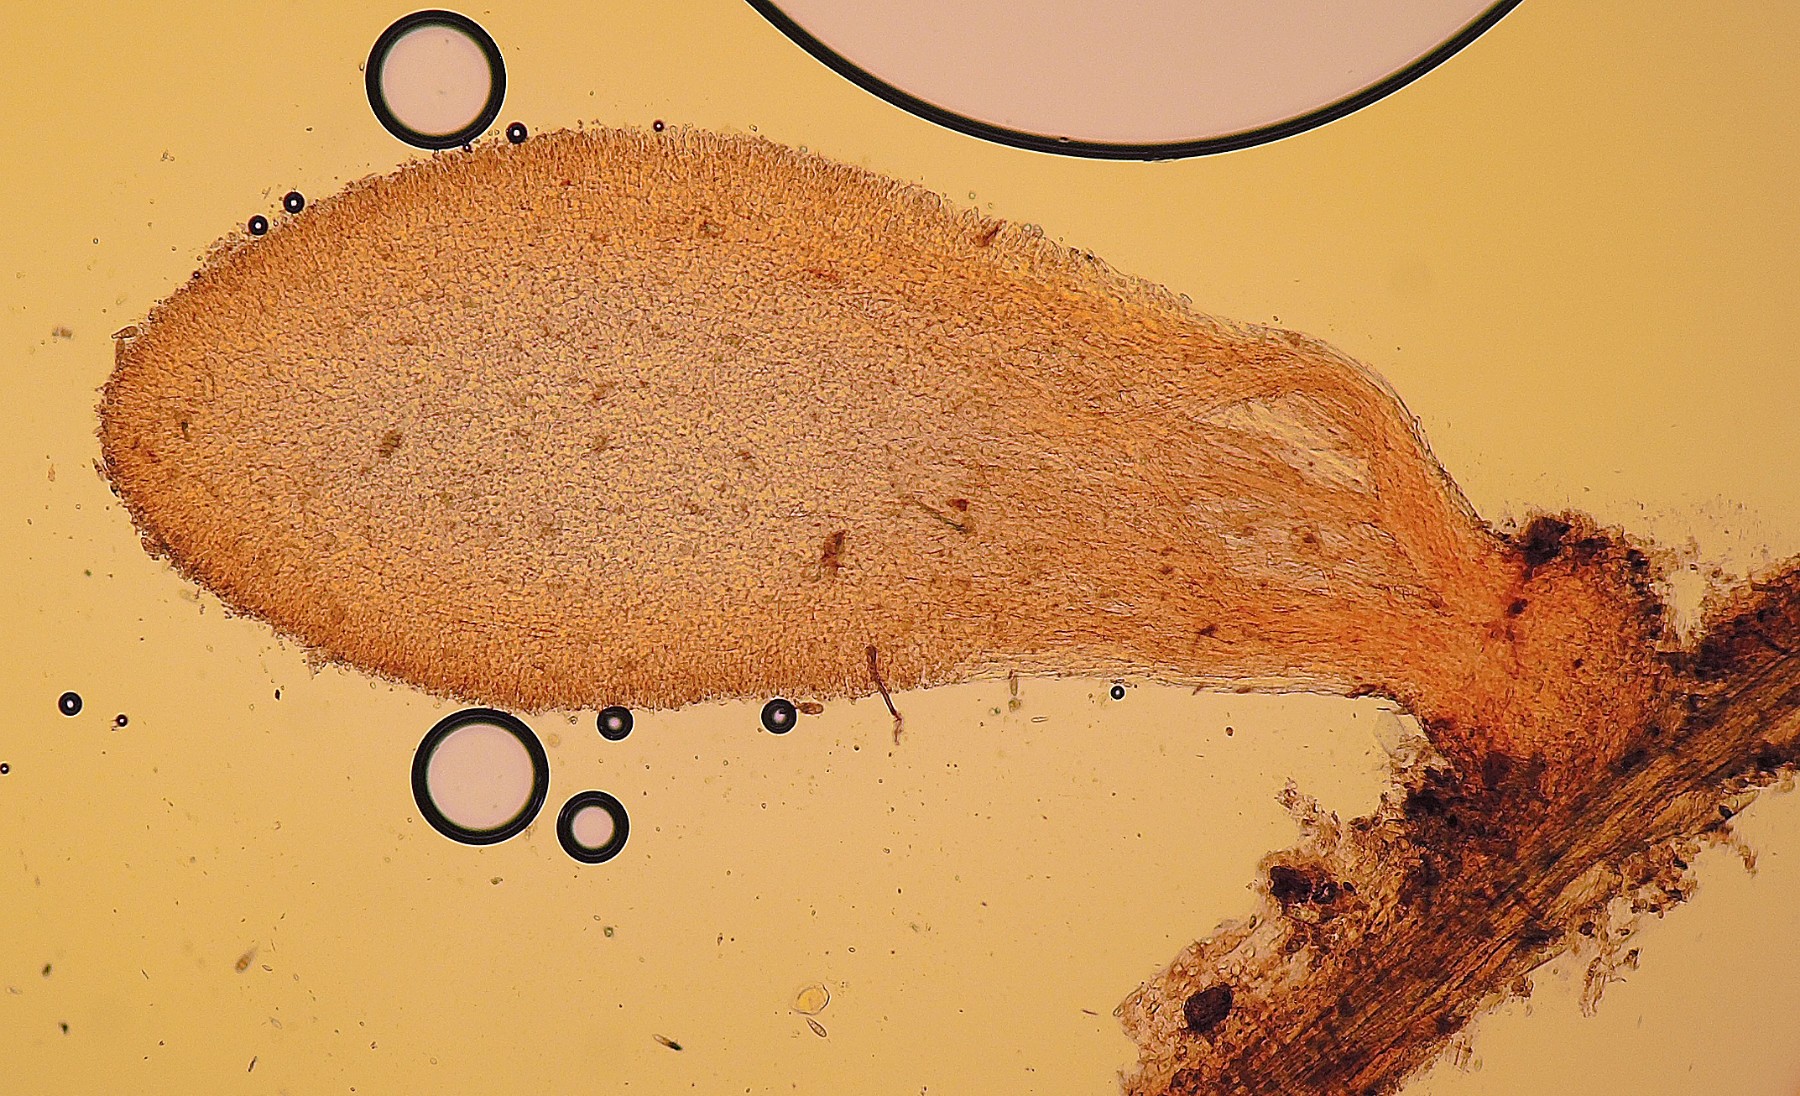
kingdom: Fungi
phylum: Basidiomycota
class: Agaricomycetes
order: Agaricales
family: Typhulaceae
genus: Typhula
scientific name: Typhula culmigena
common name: hjertesporet trådkølle
